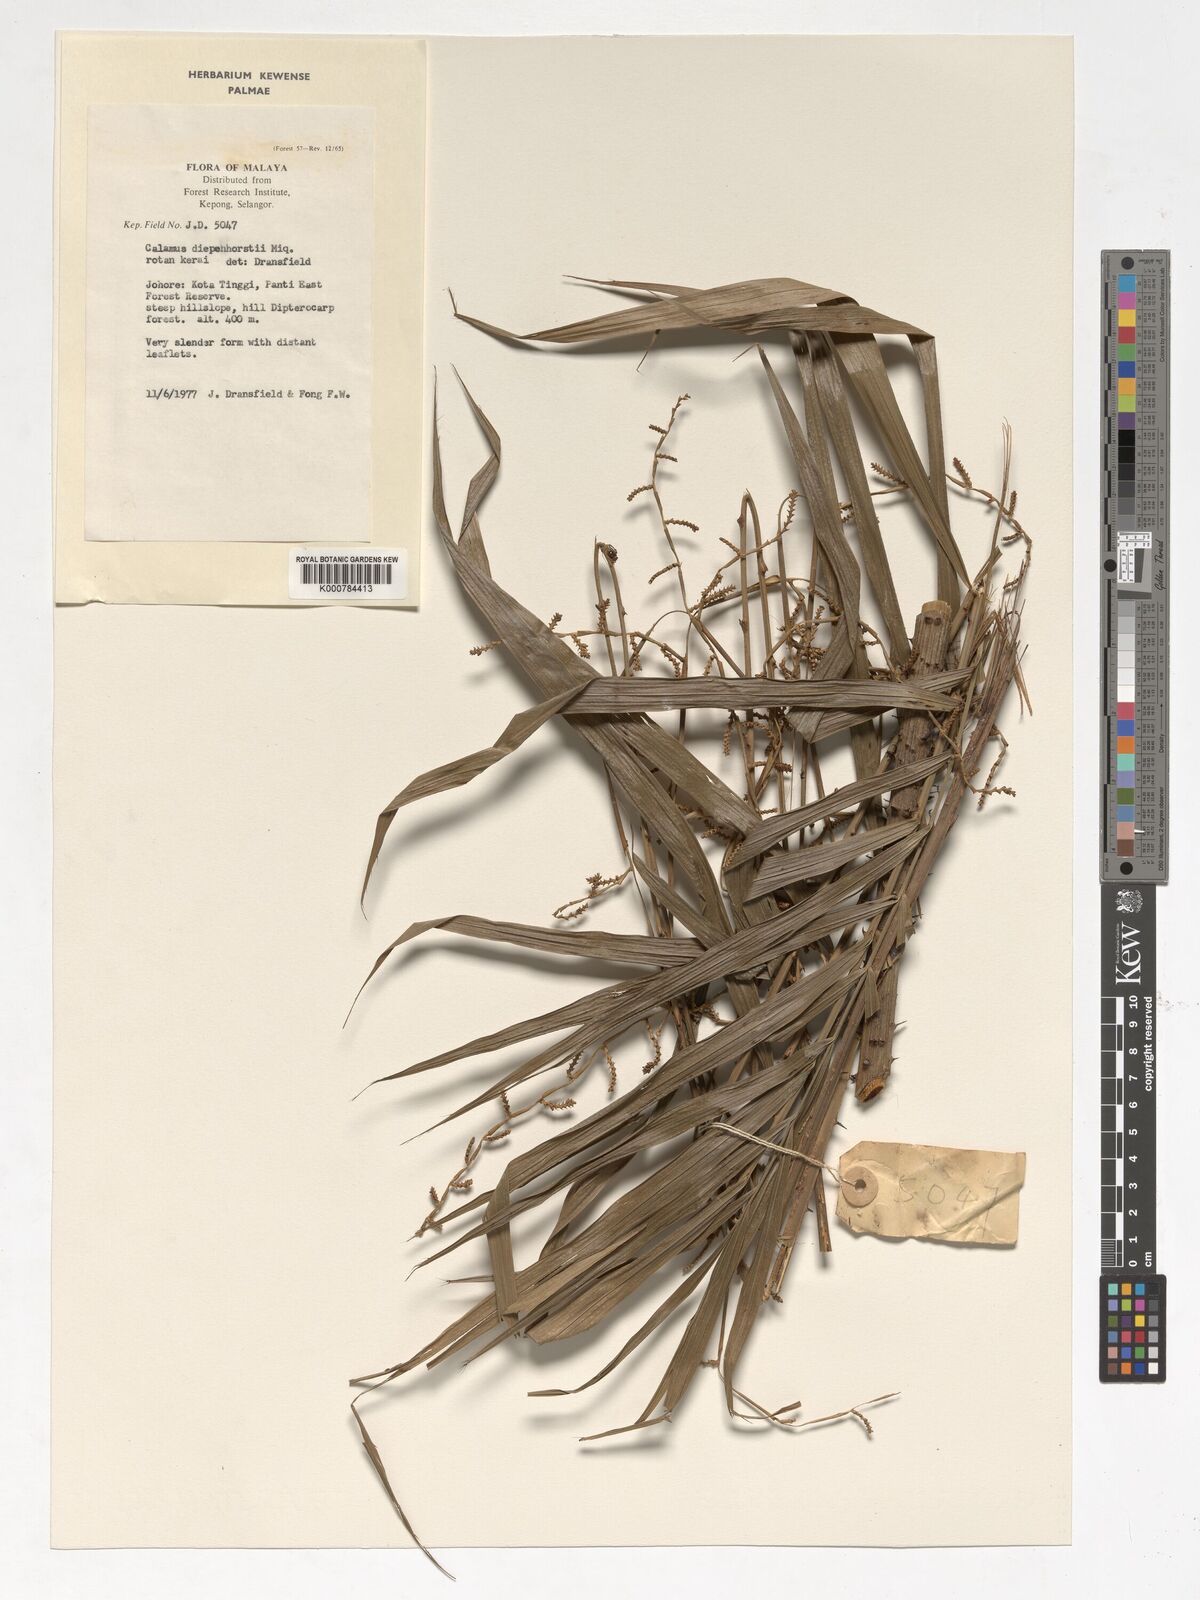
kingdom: Plantae
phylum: Tracheophyta
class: Liliopsida
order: Arecales
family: Arecaceae
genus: Calamus
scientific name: Calamus diepenhorstii
